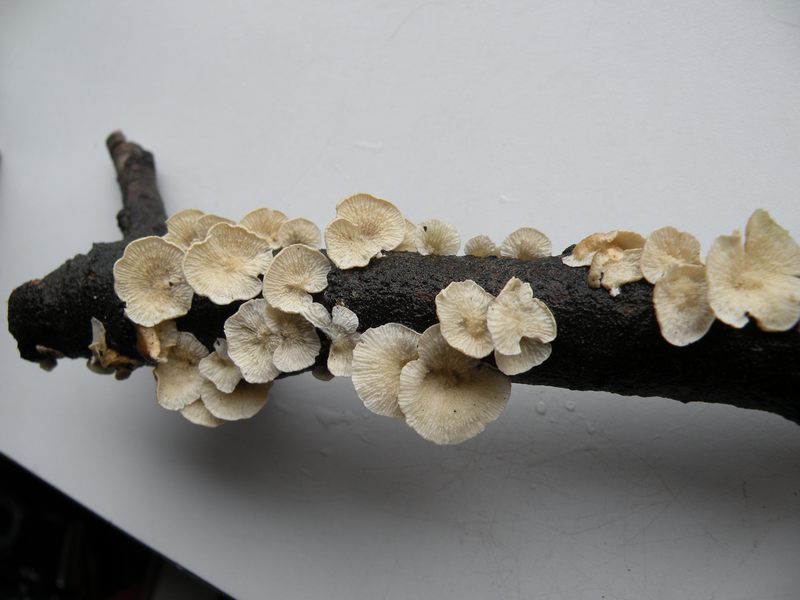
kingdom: Fungi
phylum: Basidiomycota
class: Agaricomycetes
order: Amylocorticiales
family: Amylocorticiaceae
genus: Plicaturopsis
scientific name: Plicaturopsis crispa
